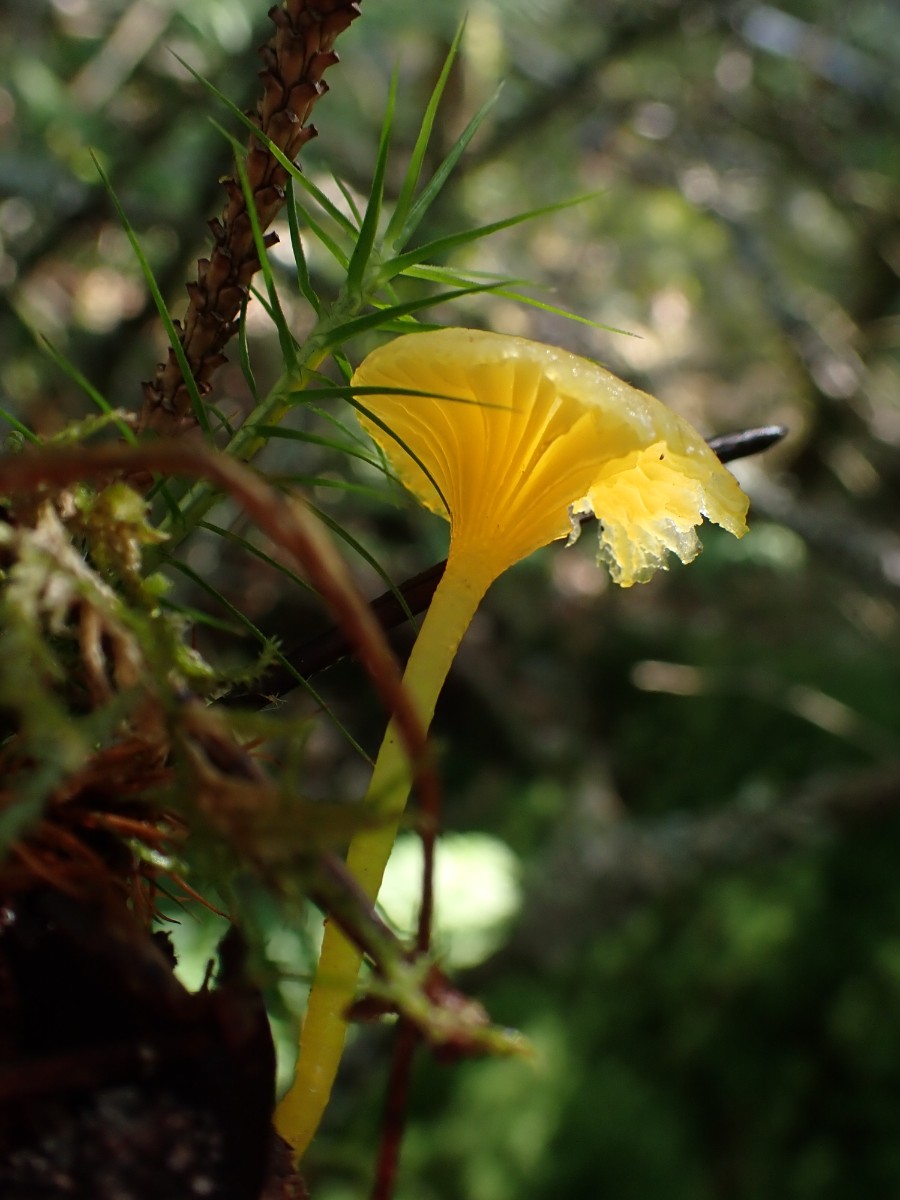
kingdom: Fungi
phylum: Basidiomycota
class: Agaricomycetes
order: Agaricales
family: Hygrophoraceae
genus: Gloioxanthomyces
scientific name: Gloioxanthomyces vitellinus
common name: kromgul vokshat
